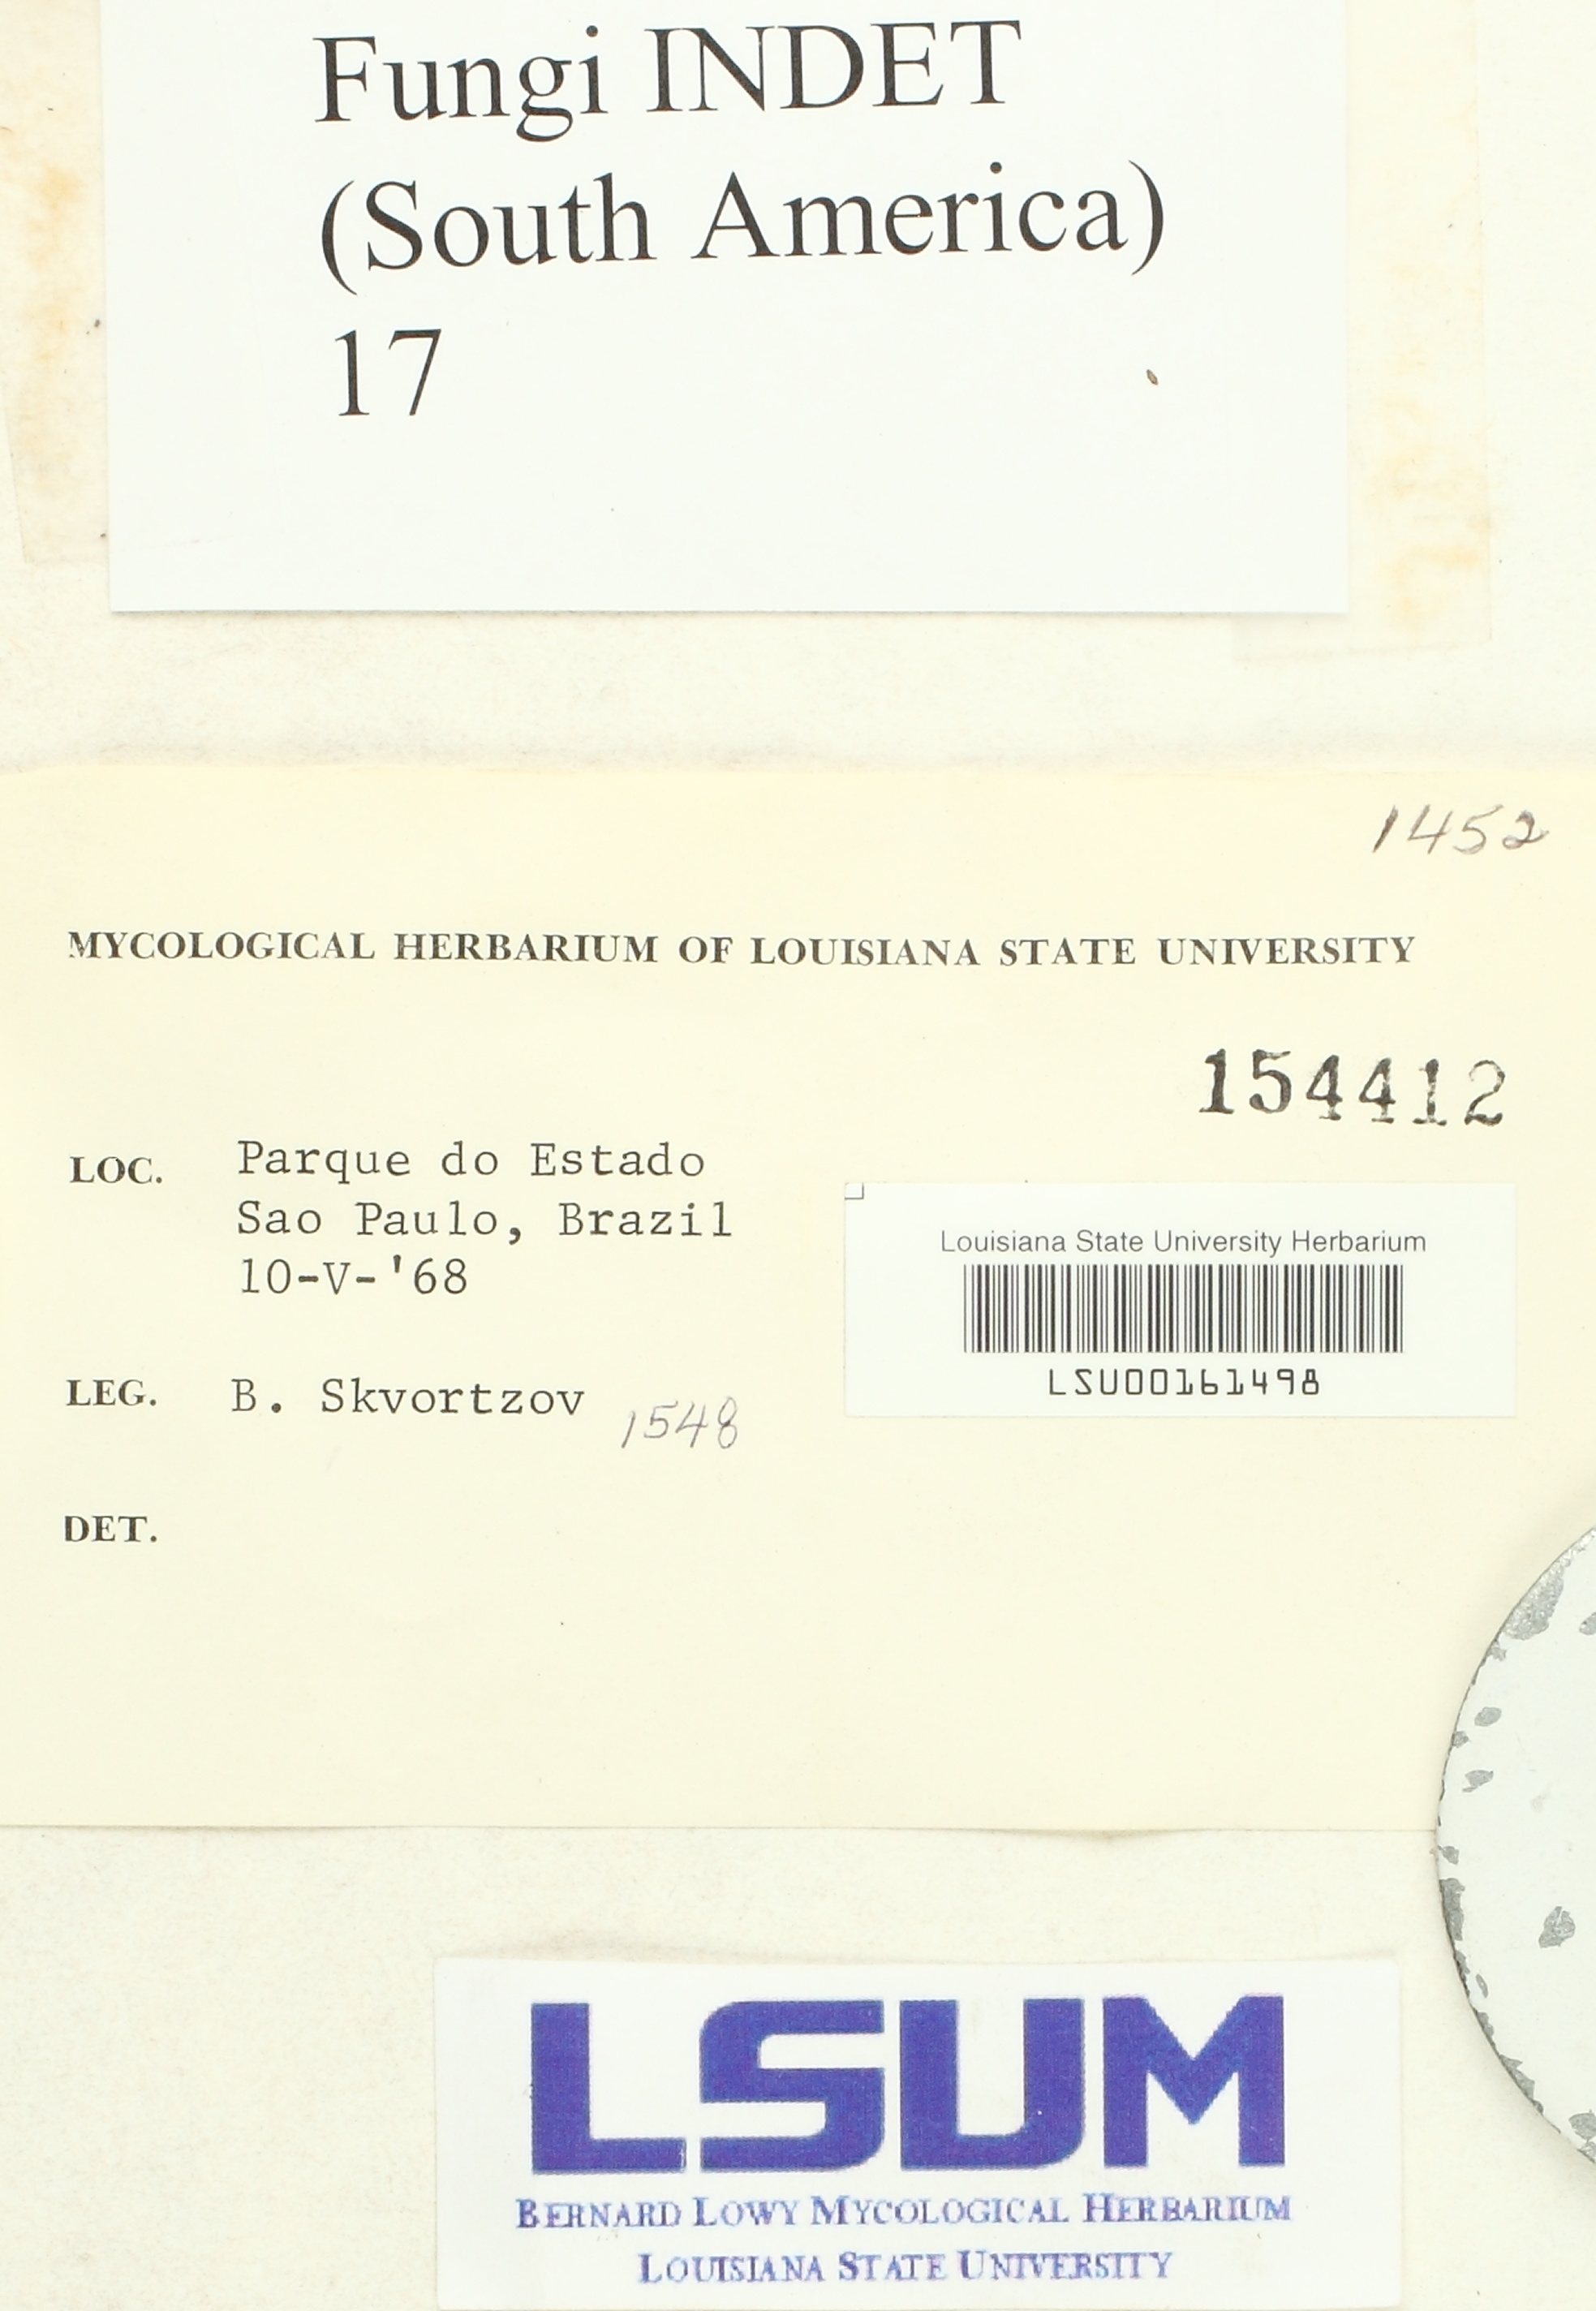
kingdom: Fungi
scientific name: Fungi
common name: Fungi
